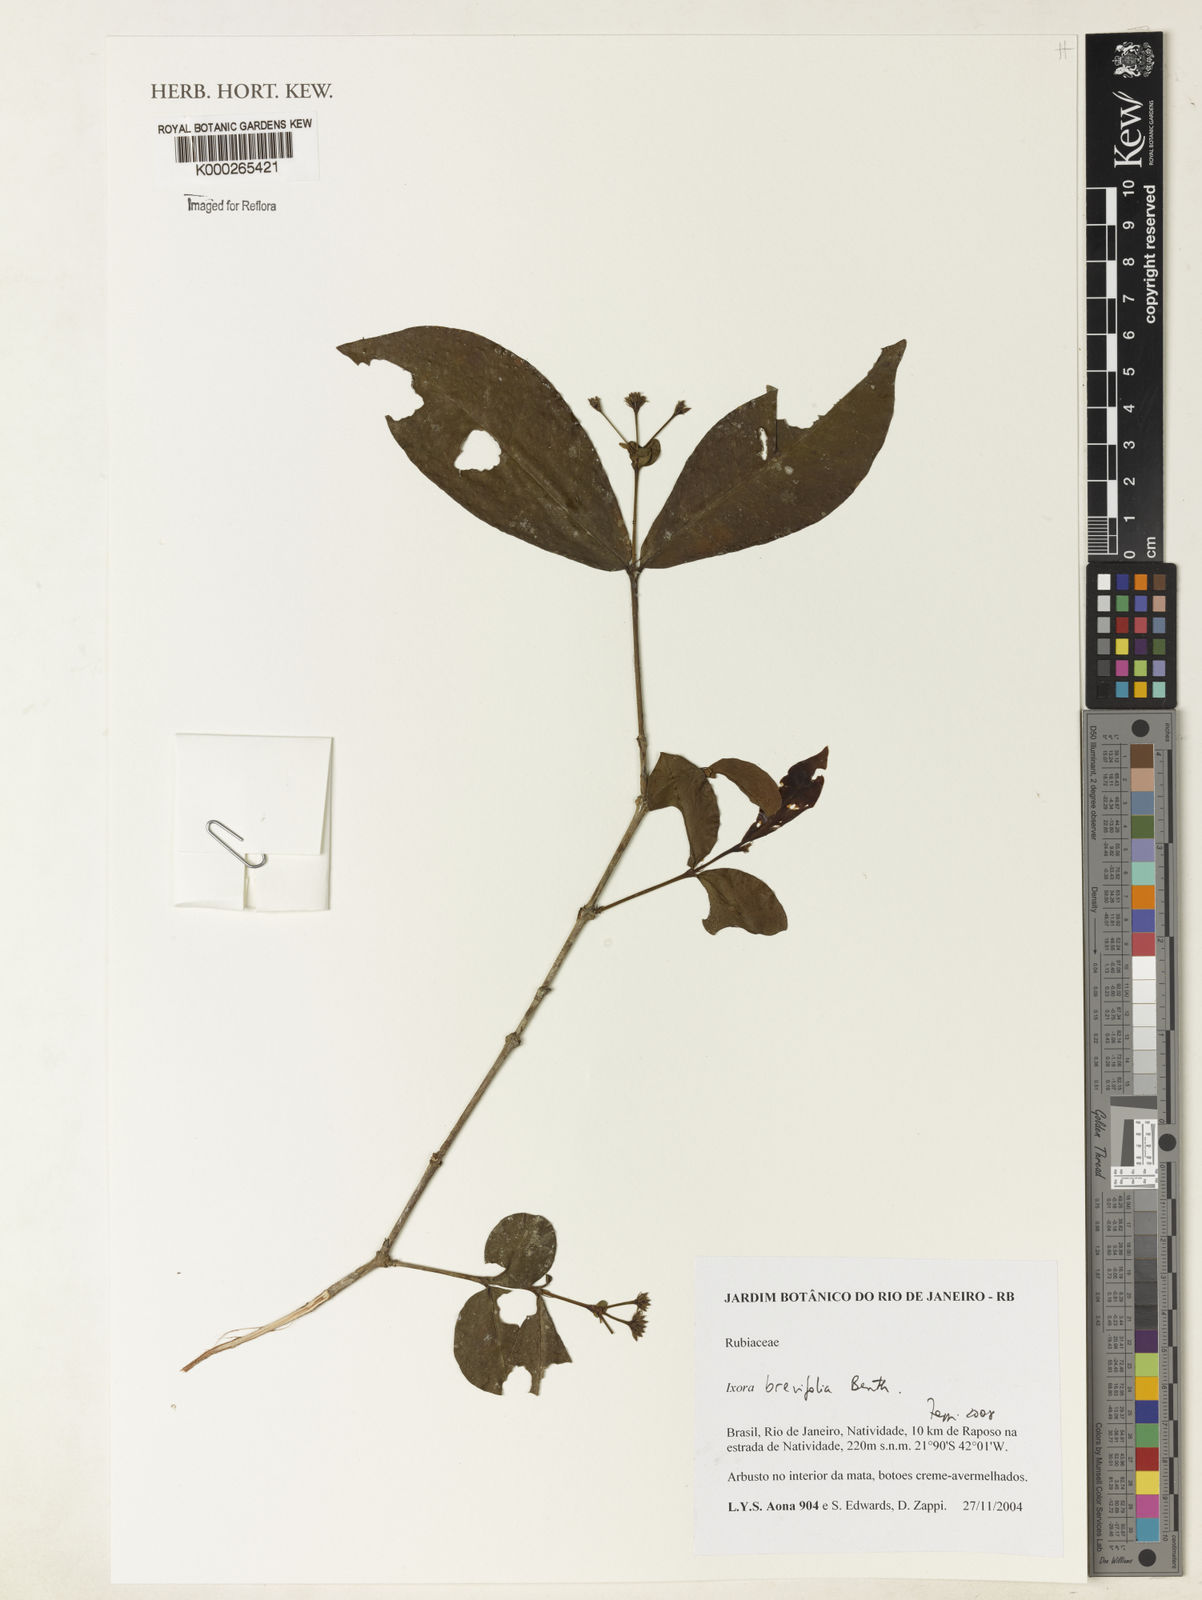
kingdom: Plantae
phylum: Tracheophyta
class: Magnoliopsida
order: Gentianales
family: Rubiaceae
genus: Ixora
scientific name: Ixora brevifolia
